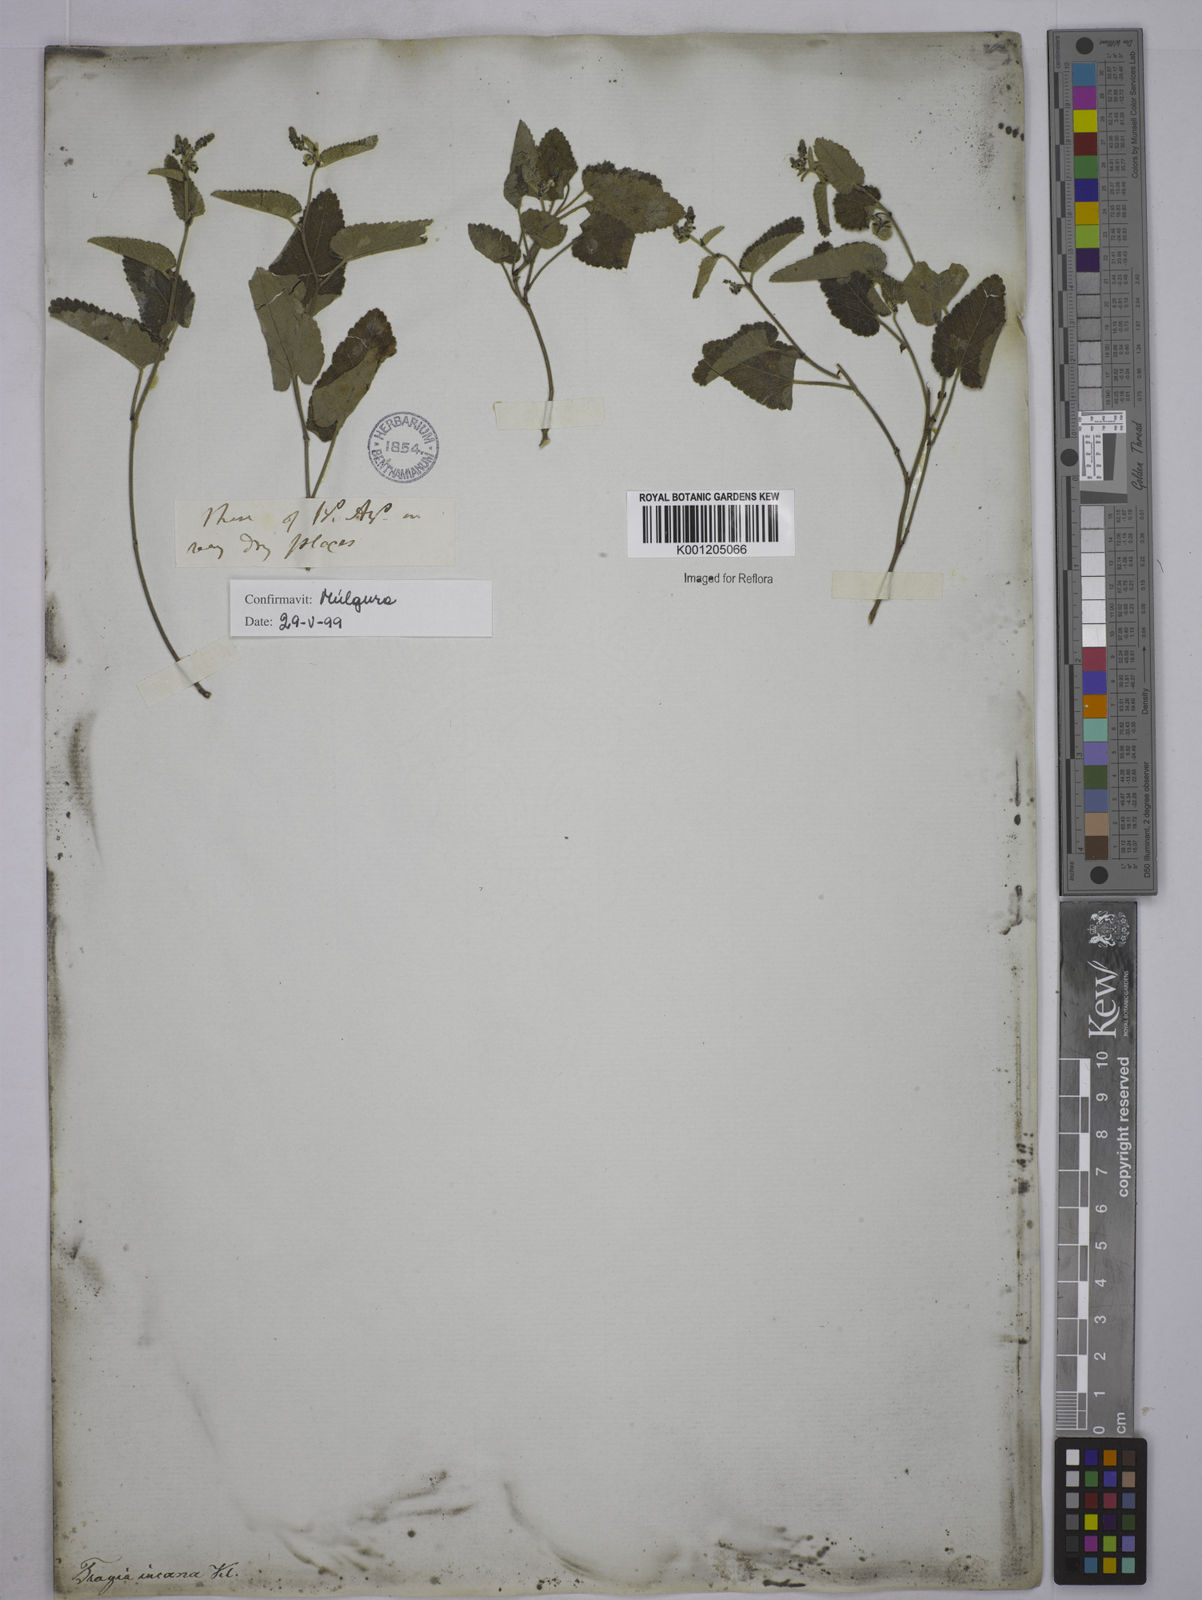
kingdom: Plantae
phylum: Tracheophyta
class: Magnoliopsida
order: Malpighiales
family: Euphorbiaceae
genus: Tragia
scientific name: Tragia
